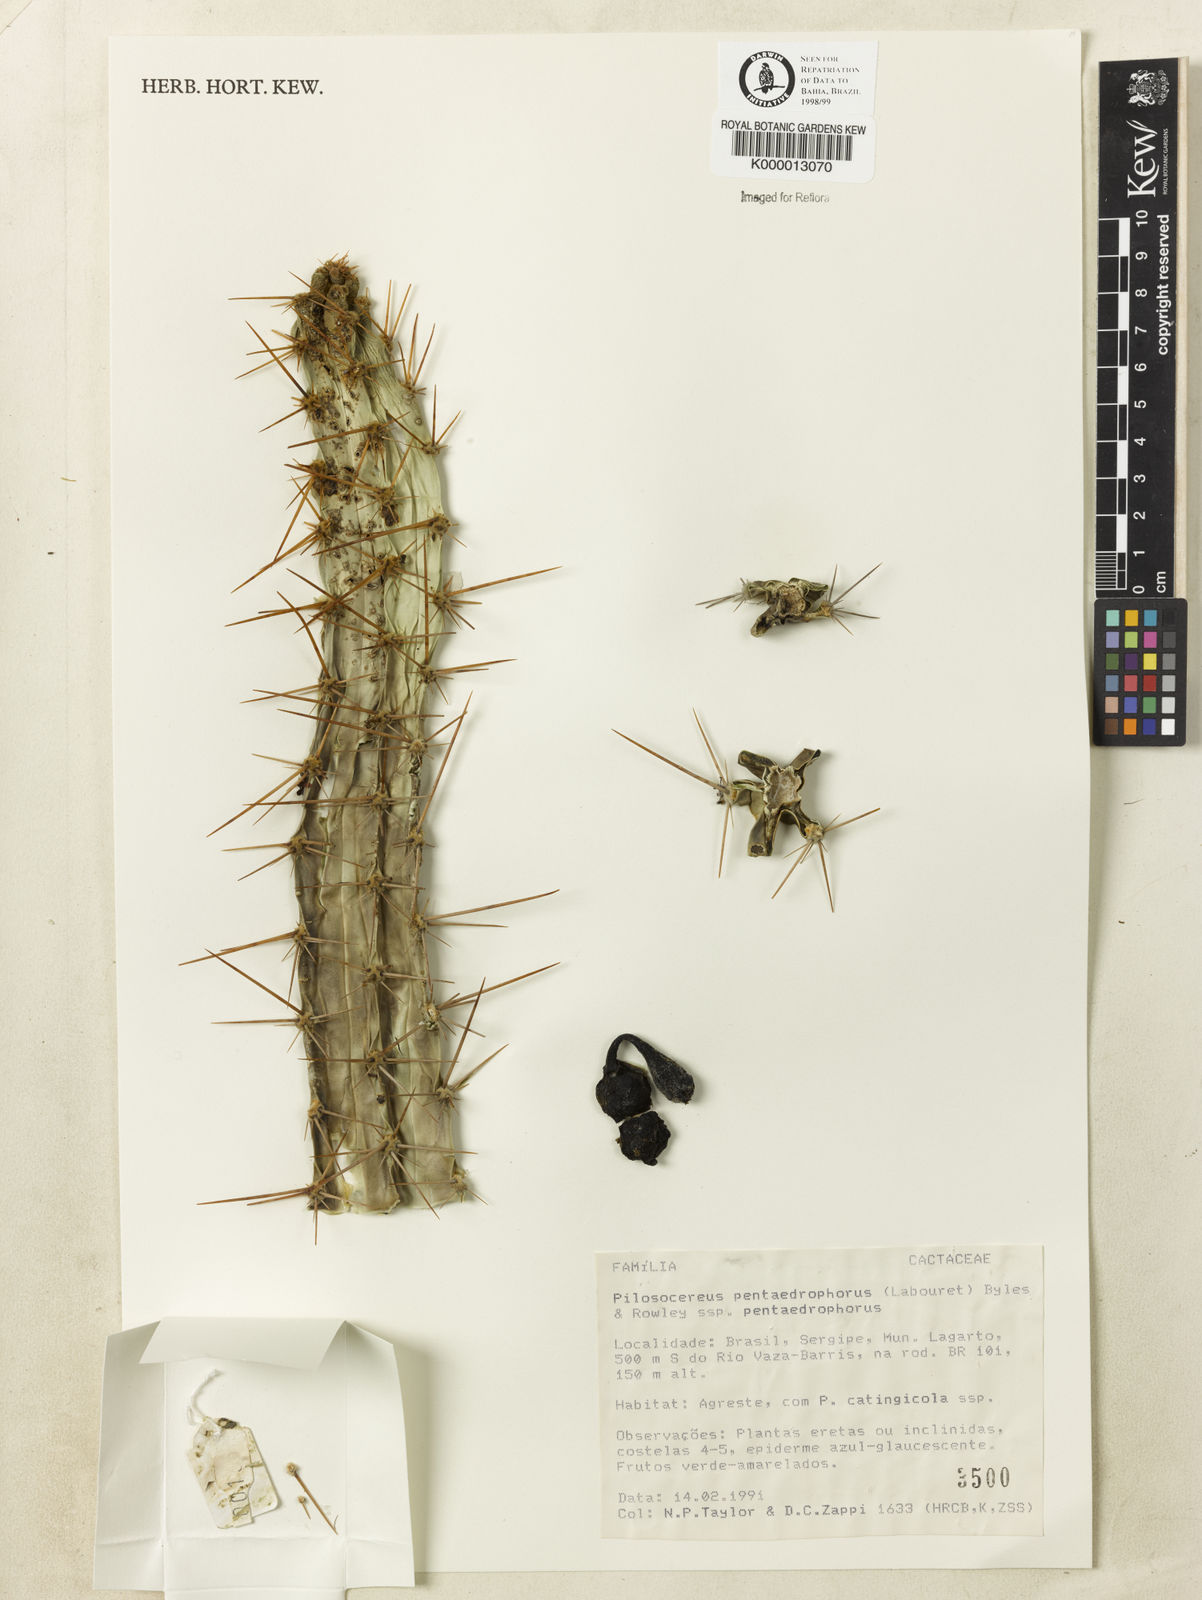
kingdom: Plantae
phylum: Tracheophyta
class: Magnoliopsida
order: Caryophyllales
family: Cactaceae
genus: Pilosocereus
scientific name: Pilosocereus pentaedrophorus
